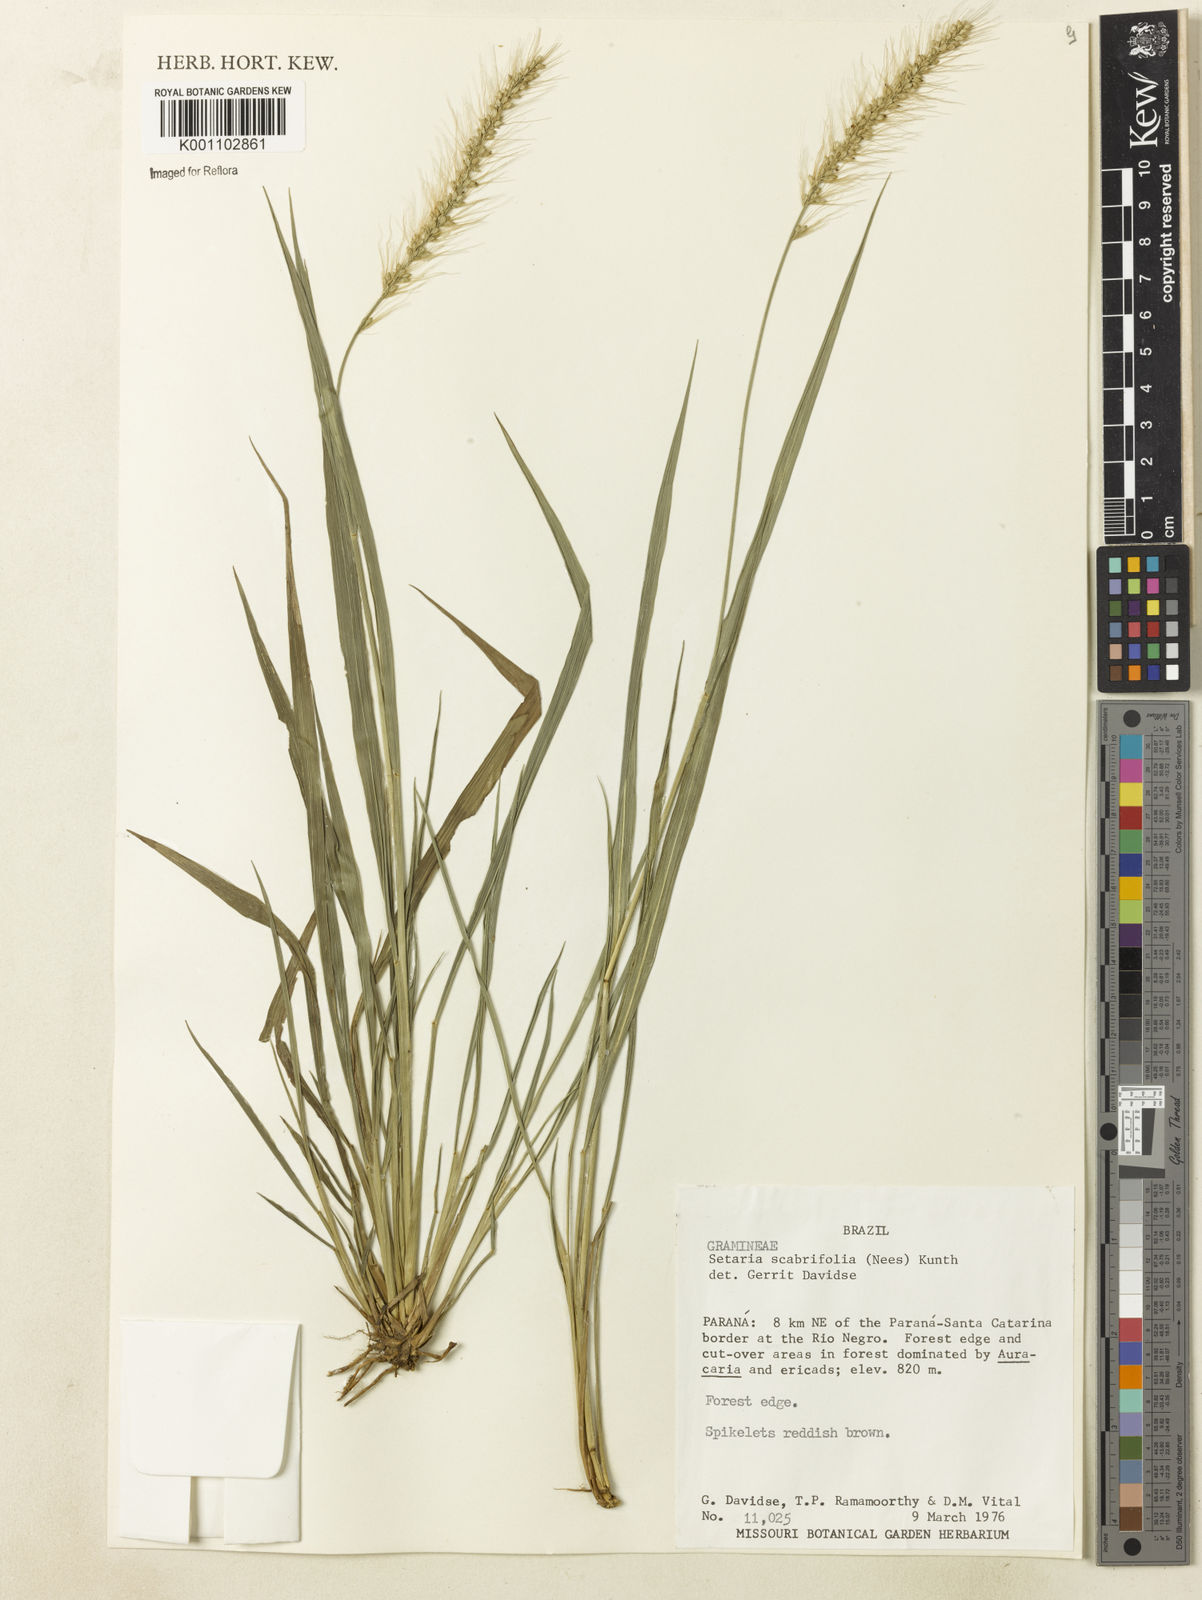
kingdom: Plantae
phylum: Tracheophyta
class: Liliopsida
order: Poales
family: Poaceae
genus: Setaria
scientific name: Setaria scabrifolia
